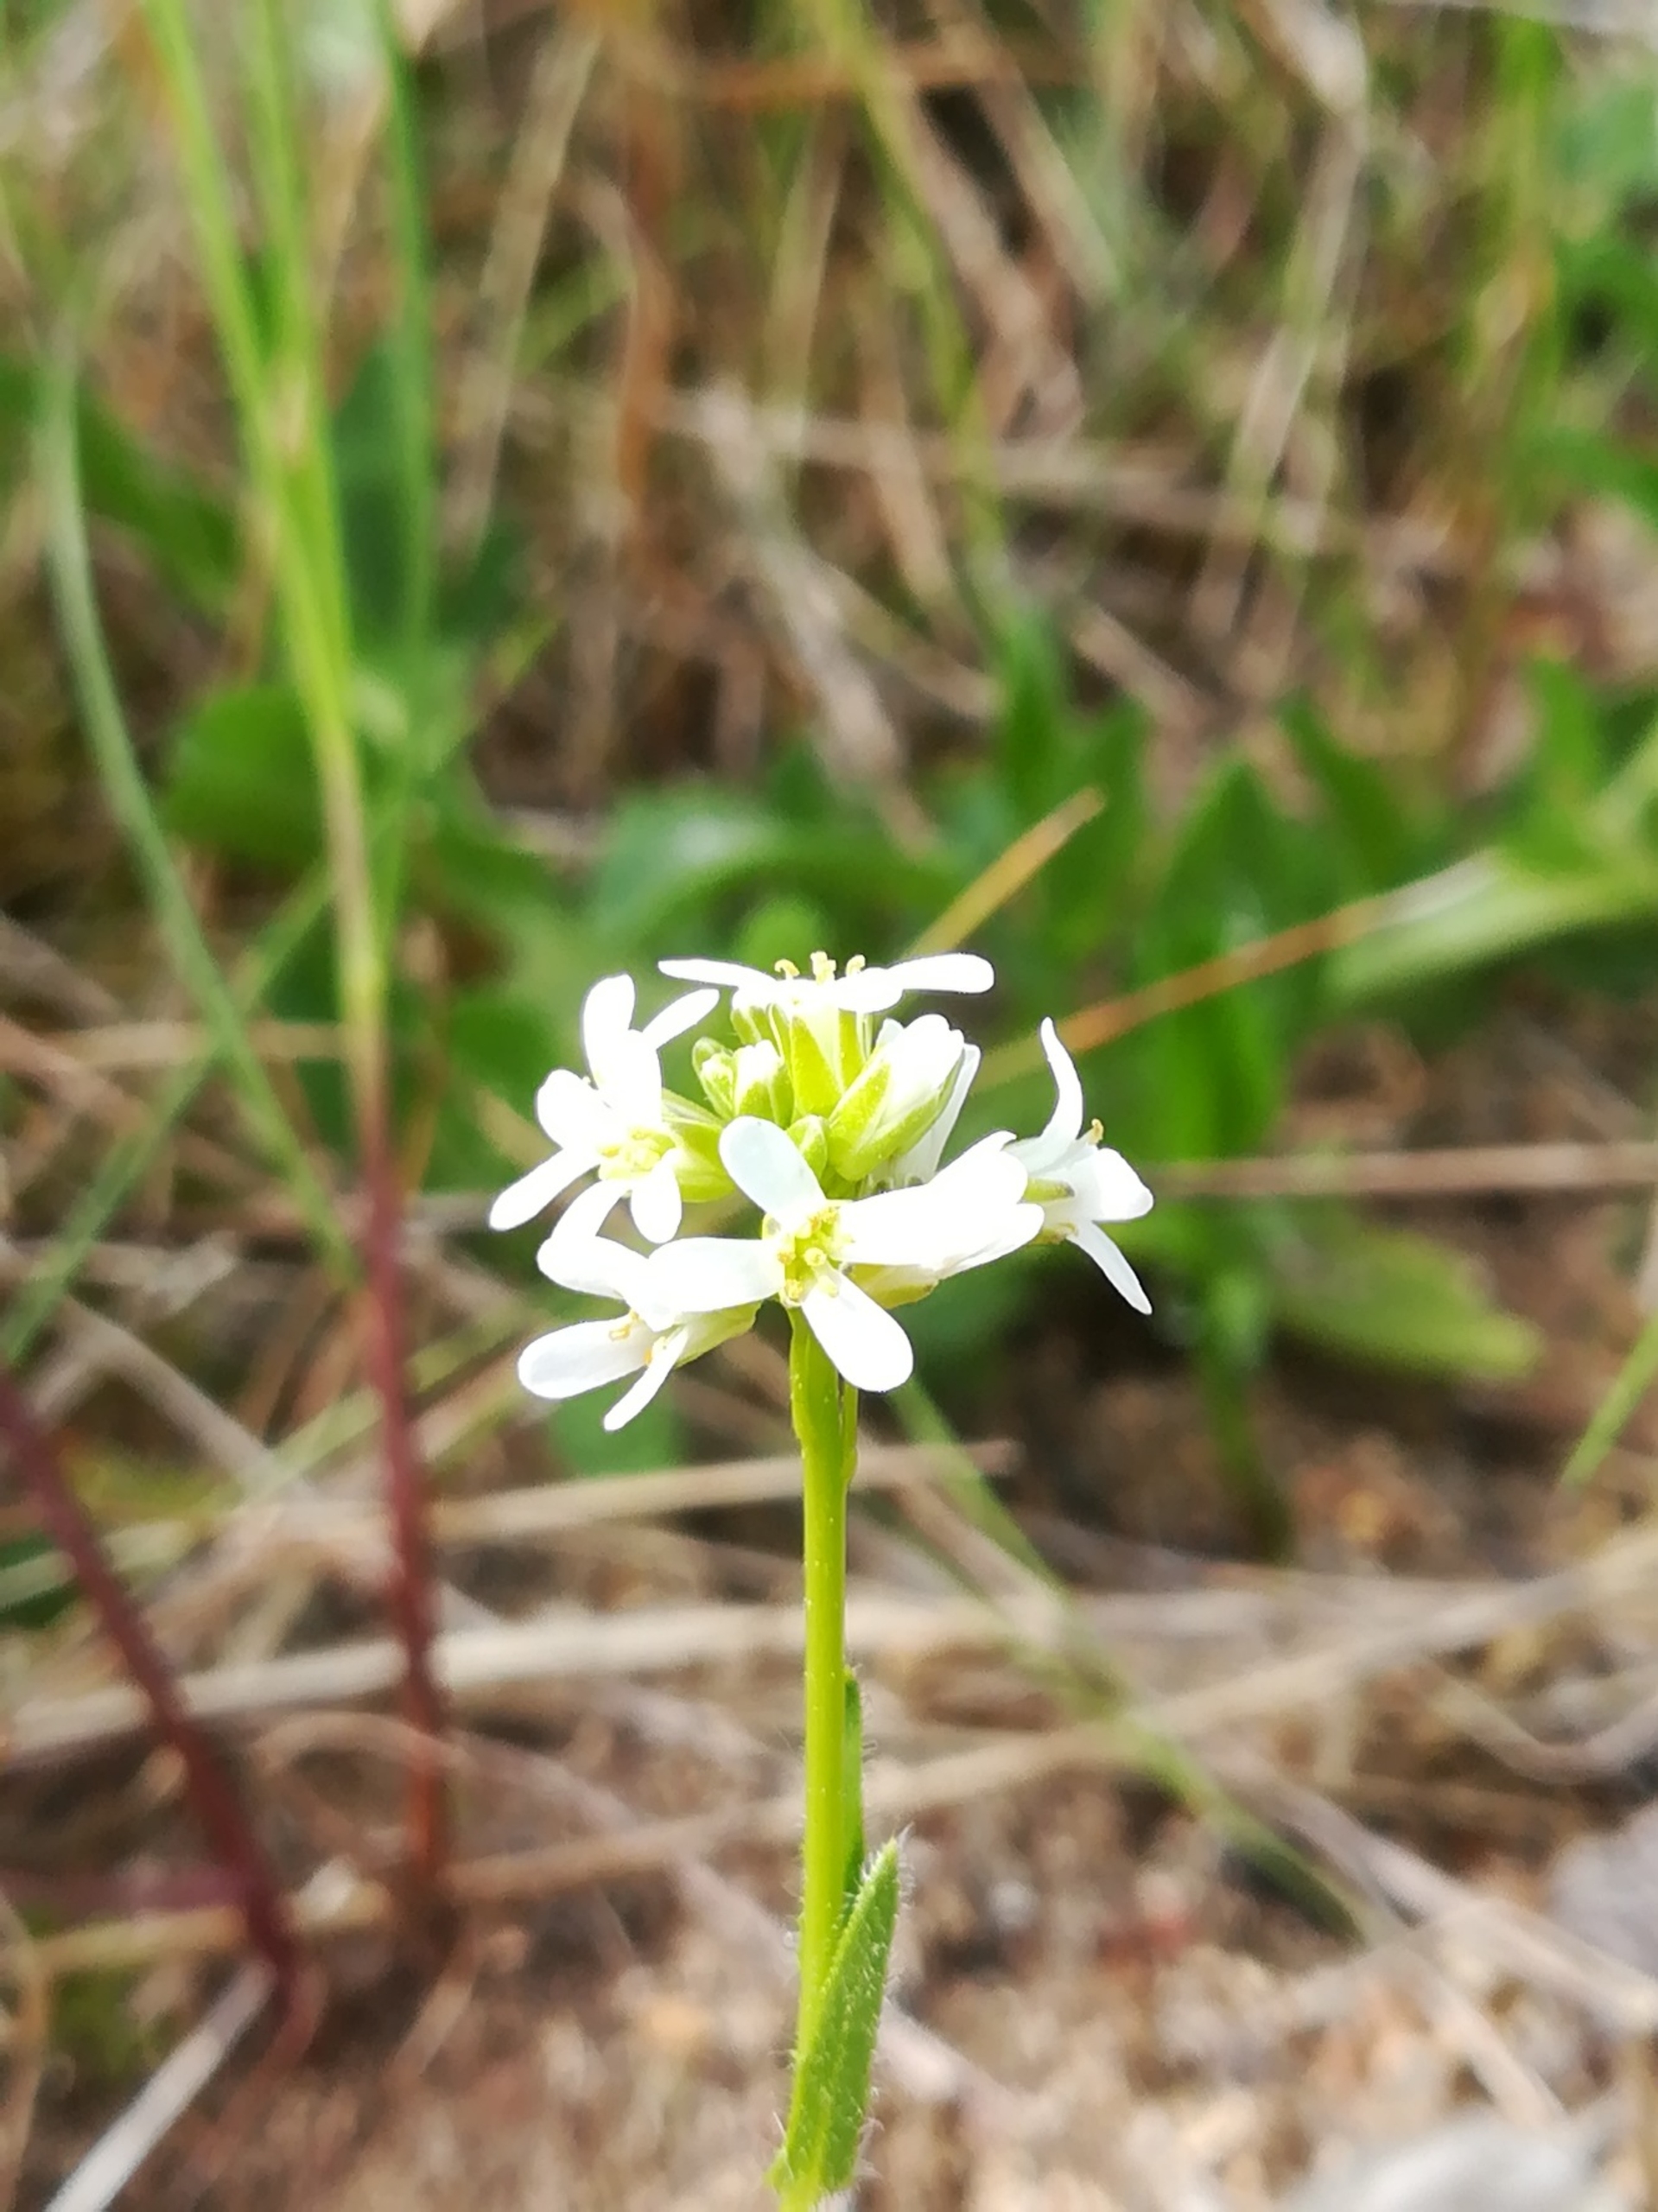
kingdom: Plantae
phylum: Tracheophyta
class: Magnoliopsida
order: Brassicales
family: Brassicaceae
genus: Arabis
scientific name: Arabis hirsuta
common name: Stivhåret kalkkarse (varietet)
